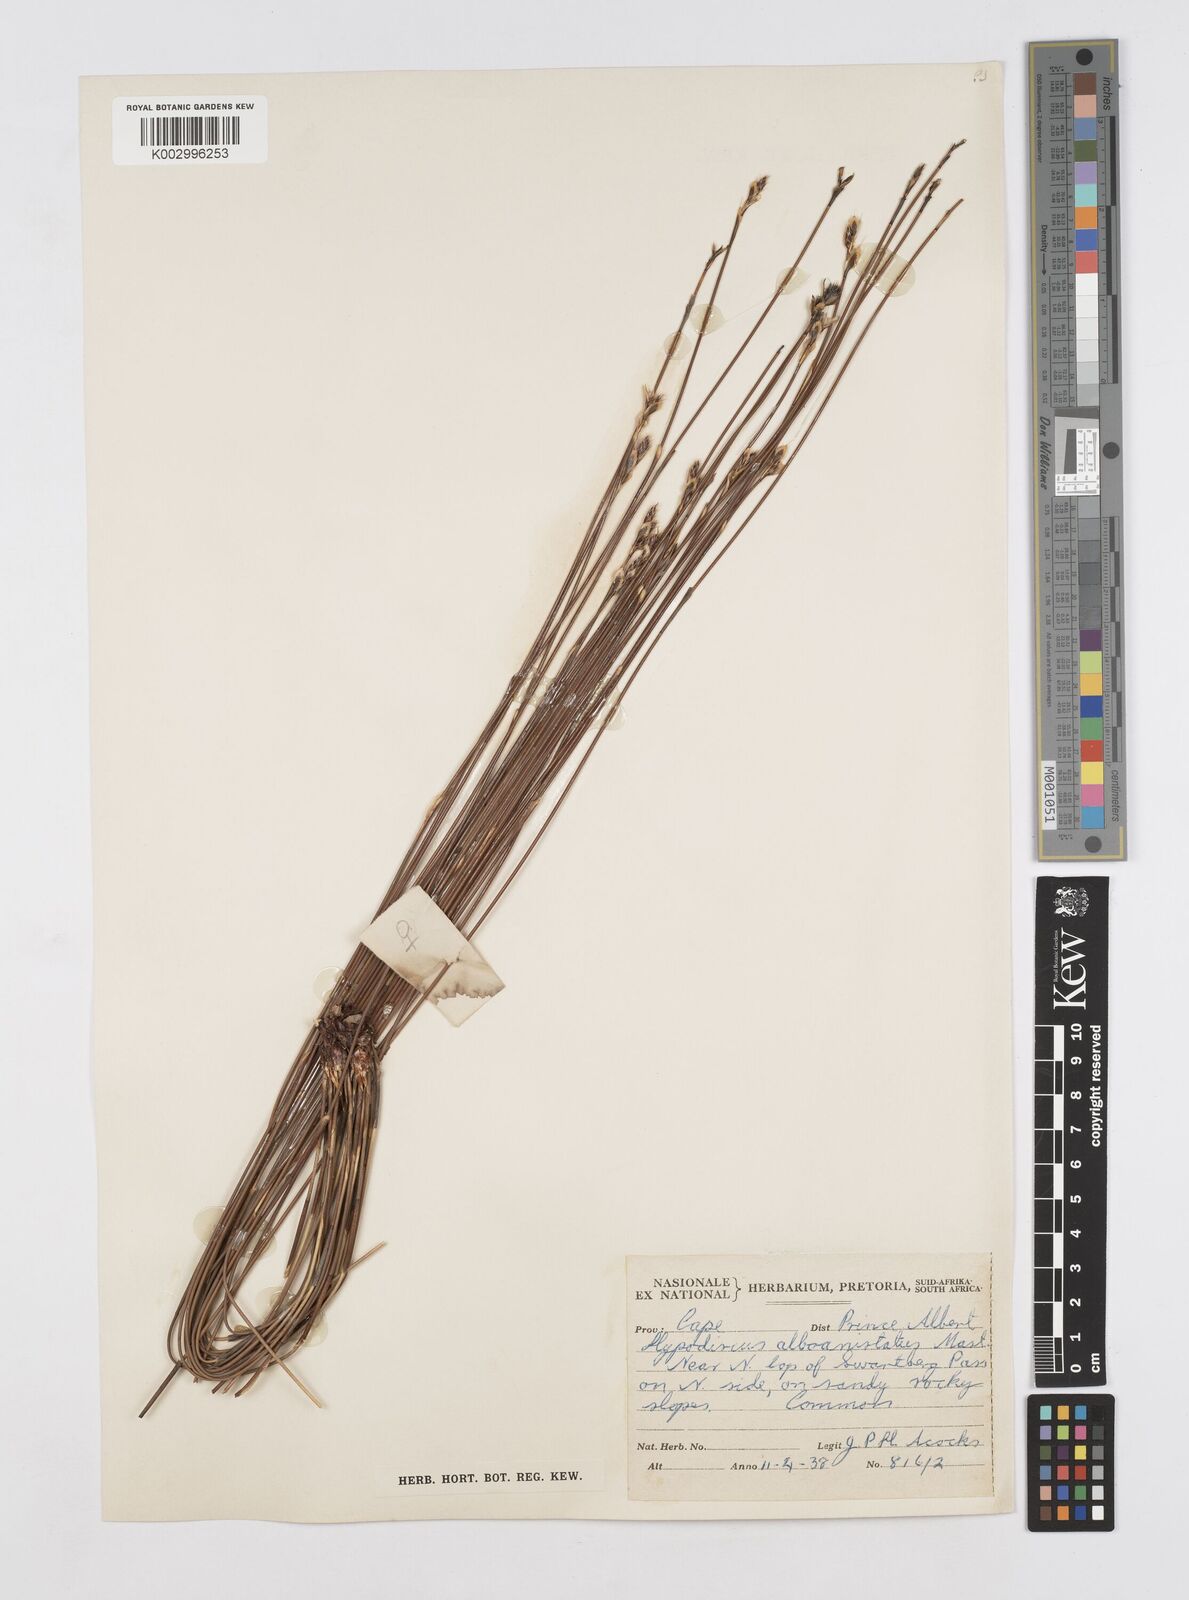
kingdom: Plantae
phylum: Tracheophyta
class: Liliopsida
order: Poales
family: Restionaceae
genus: Hypodiscus
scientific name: Hypodiscus alboaristatus
